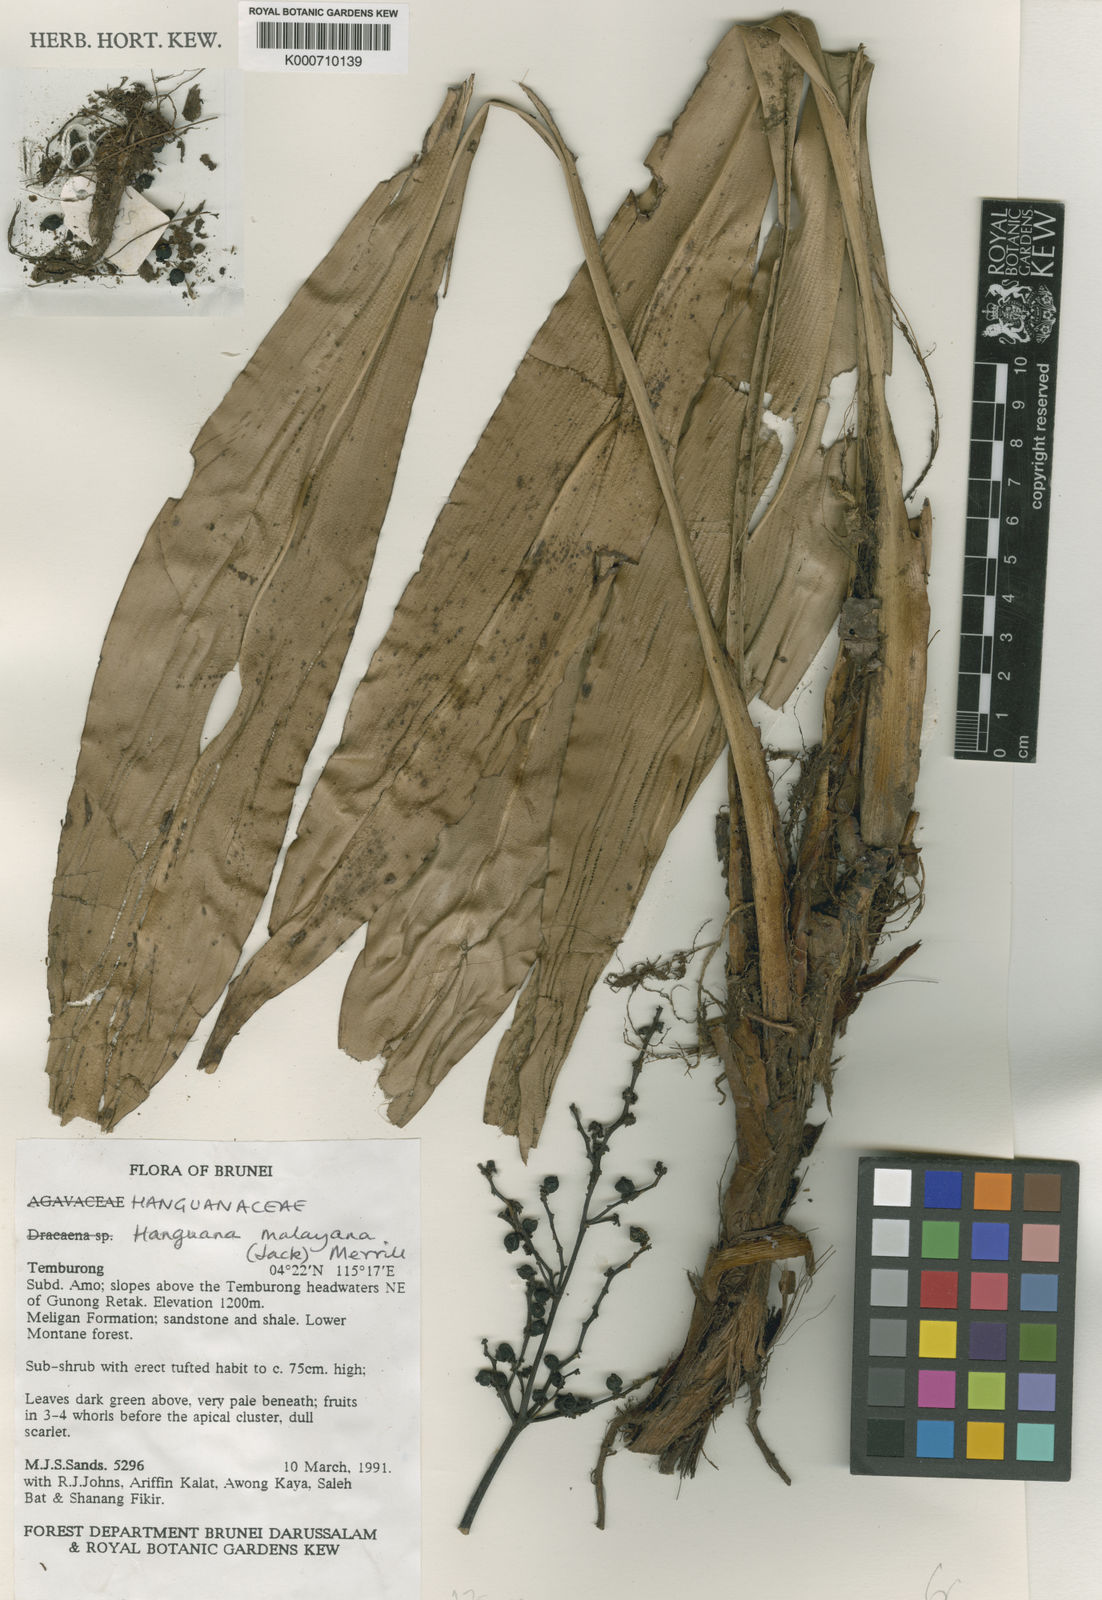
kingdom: Plantae
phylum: Tracheophyta
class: Liliopsida
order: Commelinales
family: Hanguanaceae
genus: Hanguana
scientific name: Hanguana malayana
